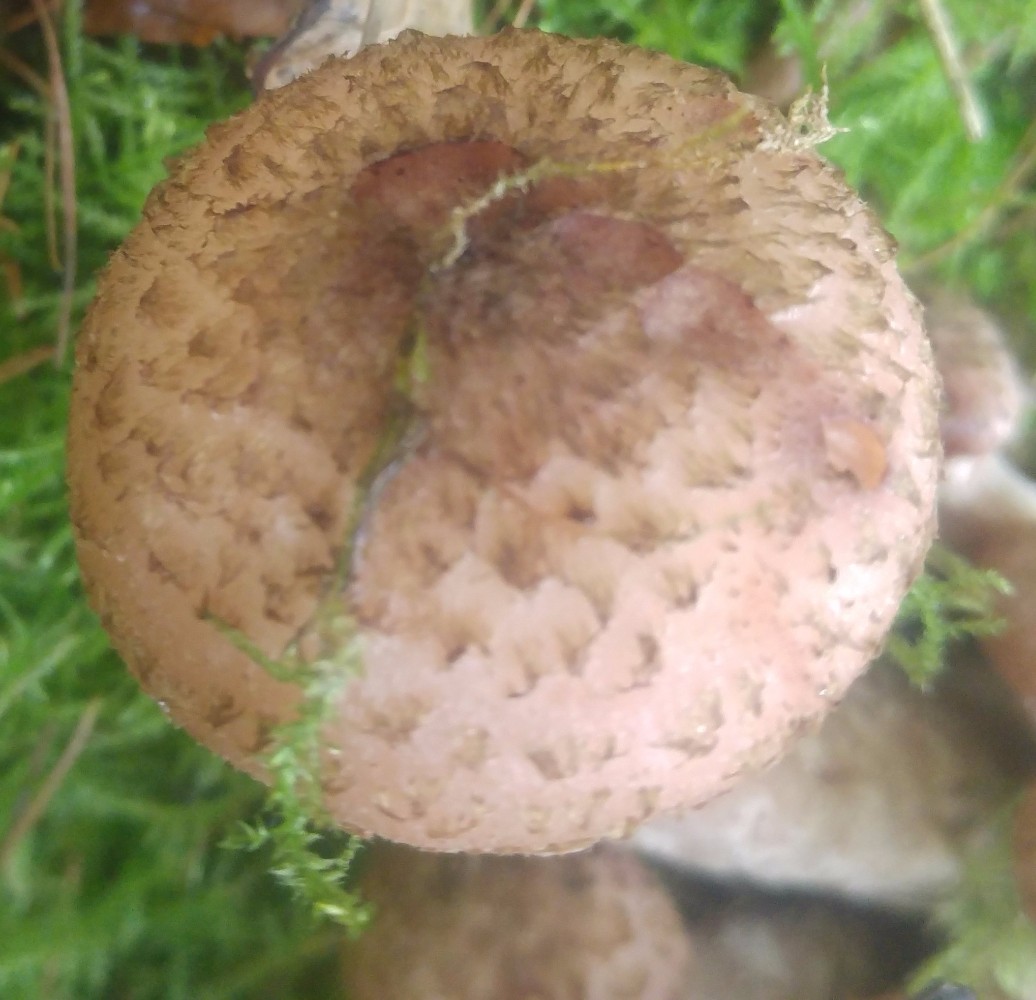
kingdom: Fungi
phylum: Basidiomycota
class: Agaricomycetes
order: Agaricales
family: Physalacriaceae
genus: Armillaria
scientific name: Armillaria lutea
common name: køllestokket honningsvamp
